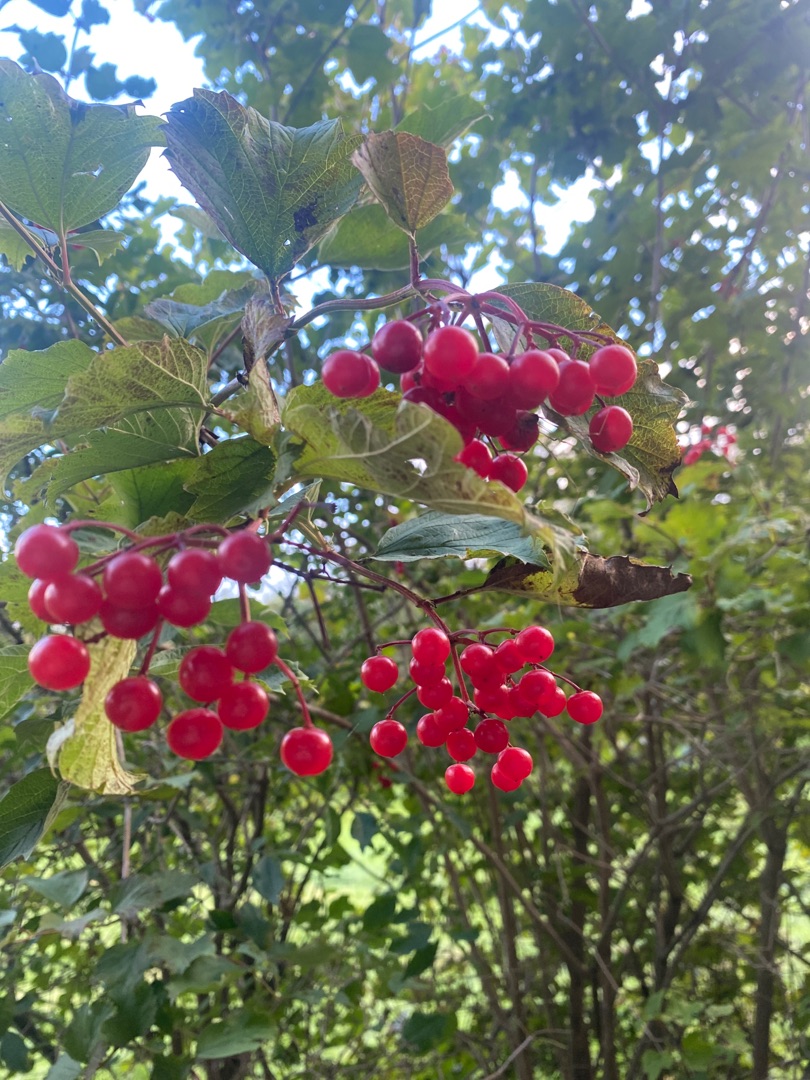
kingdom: Plantae
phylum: Tracheophyta
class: Magnoliopsida
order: Dipsacales
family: Viburnaceae
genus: Viburnum
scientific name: Viburnum opulus
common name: Kvalkved
